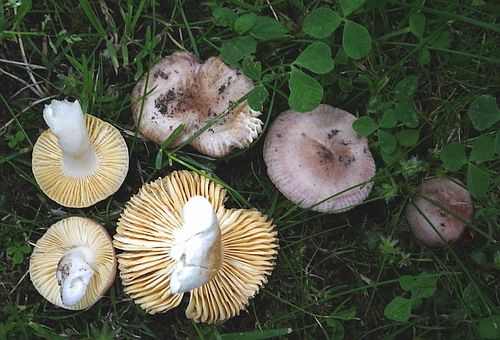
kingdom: Fungi
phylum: Basidiomycota
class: Agaricomycetes
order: Russulales
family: Russulaceae
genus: Russula
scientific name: Russula odorata
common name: duft-skørhat
